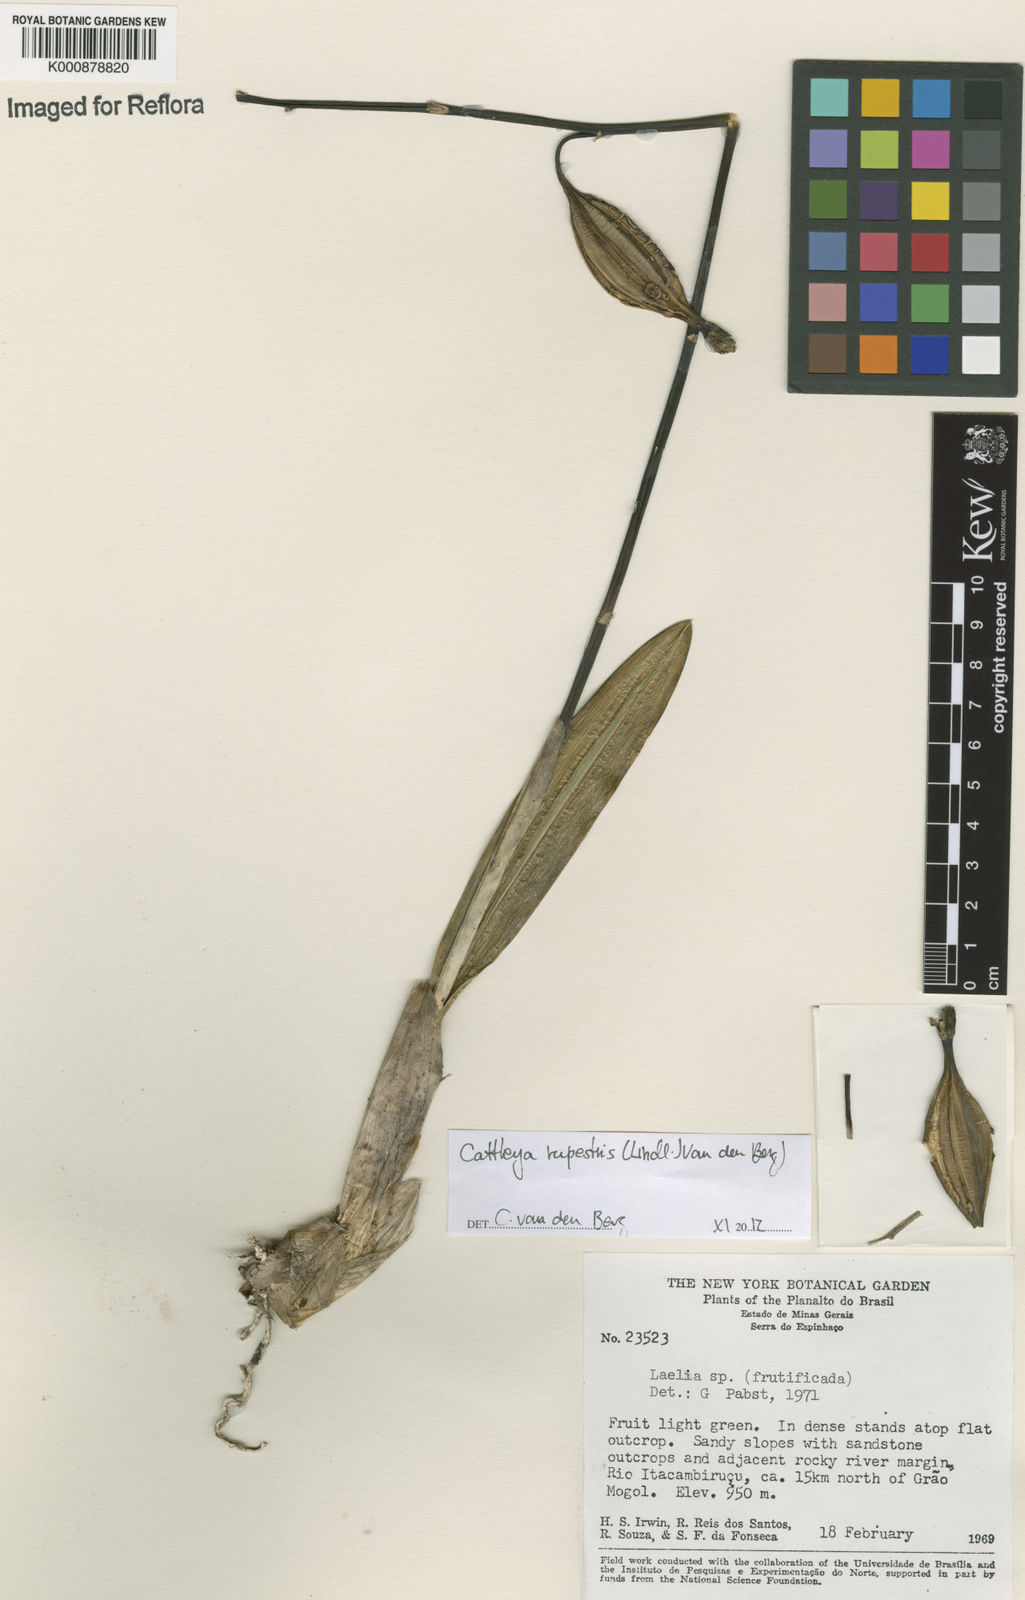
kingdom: Plantae
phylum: Tracheophyta
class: Liliopsida
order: Asparagales
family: Orchidaceae
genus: Cattleya
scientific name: Cattleya rupestris
